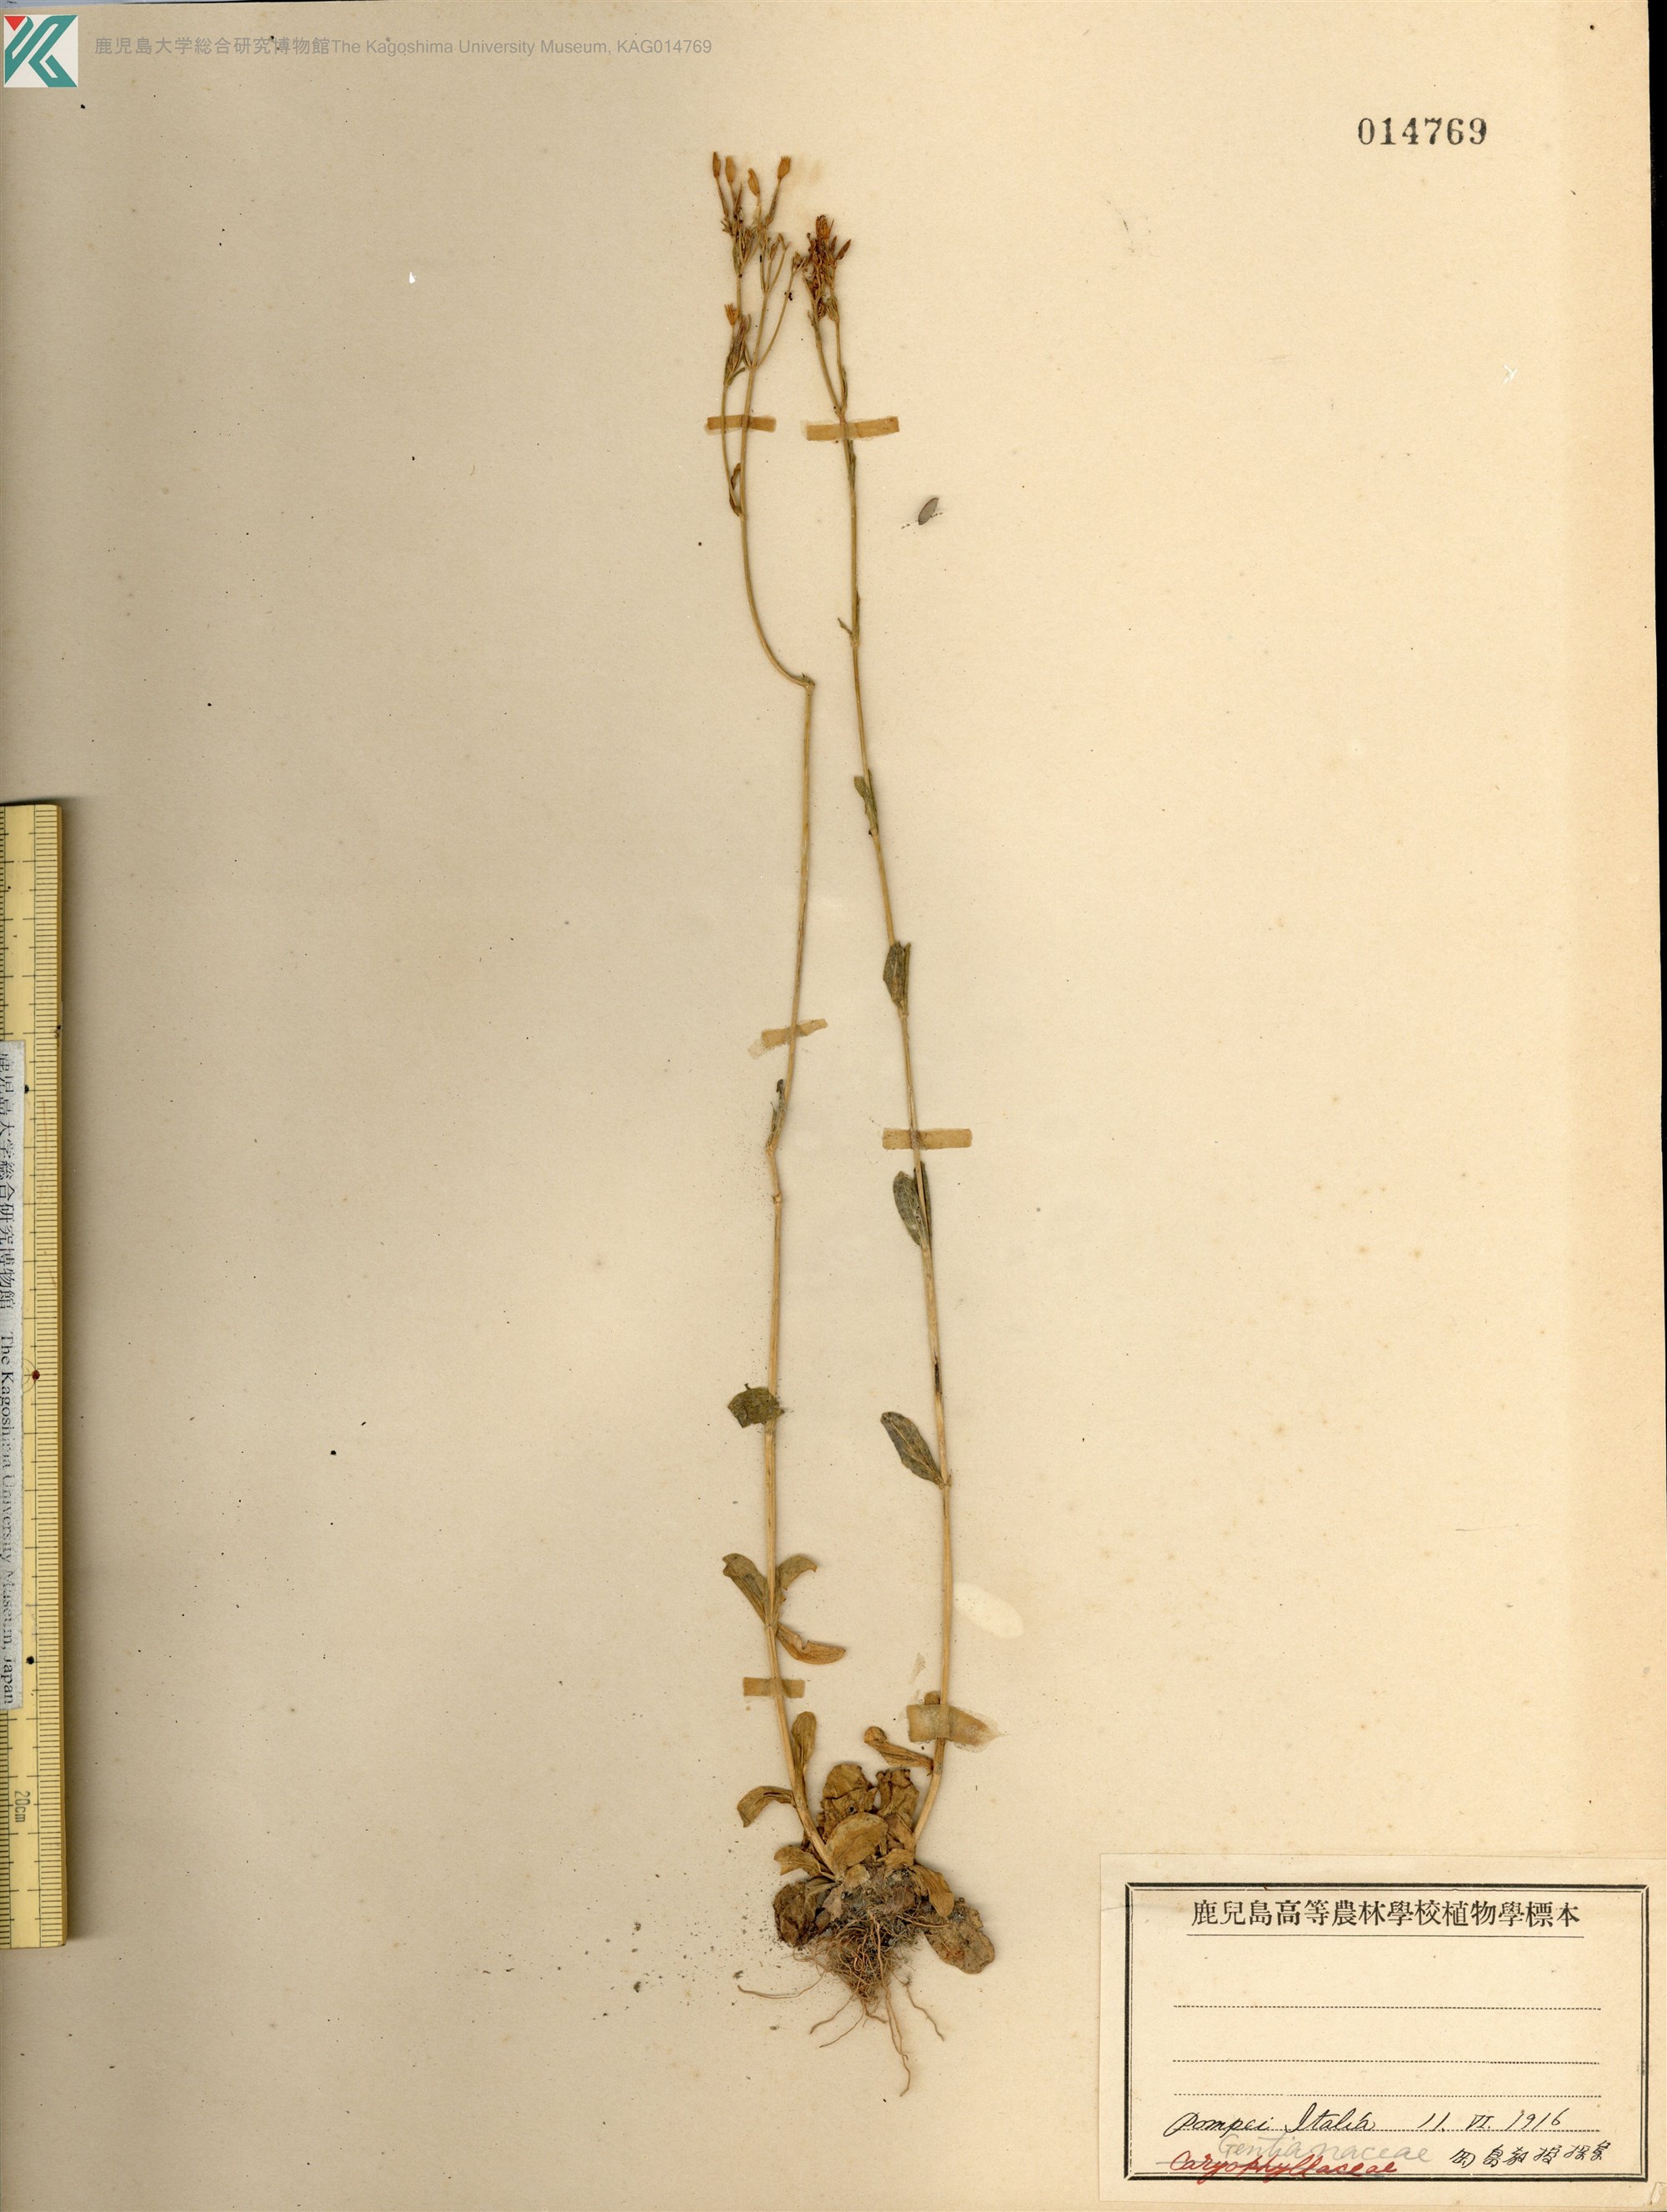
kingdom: Plantae
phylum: Tracheophyta
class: Magnoliopsida
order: Gentianales
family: Gentianaceae
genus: Centaurium
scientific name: Centaurium erythraea
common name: Common centaury
